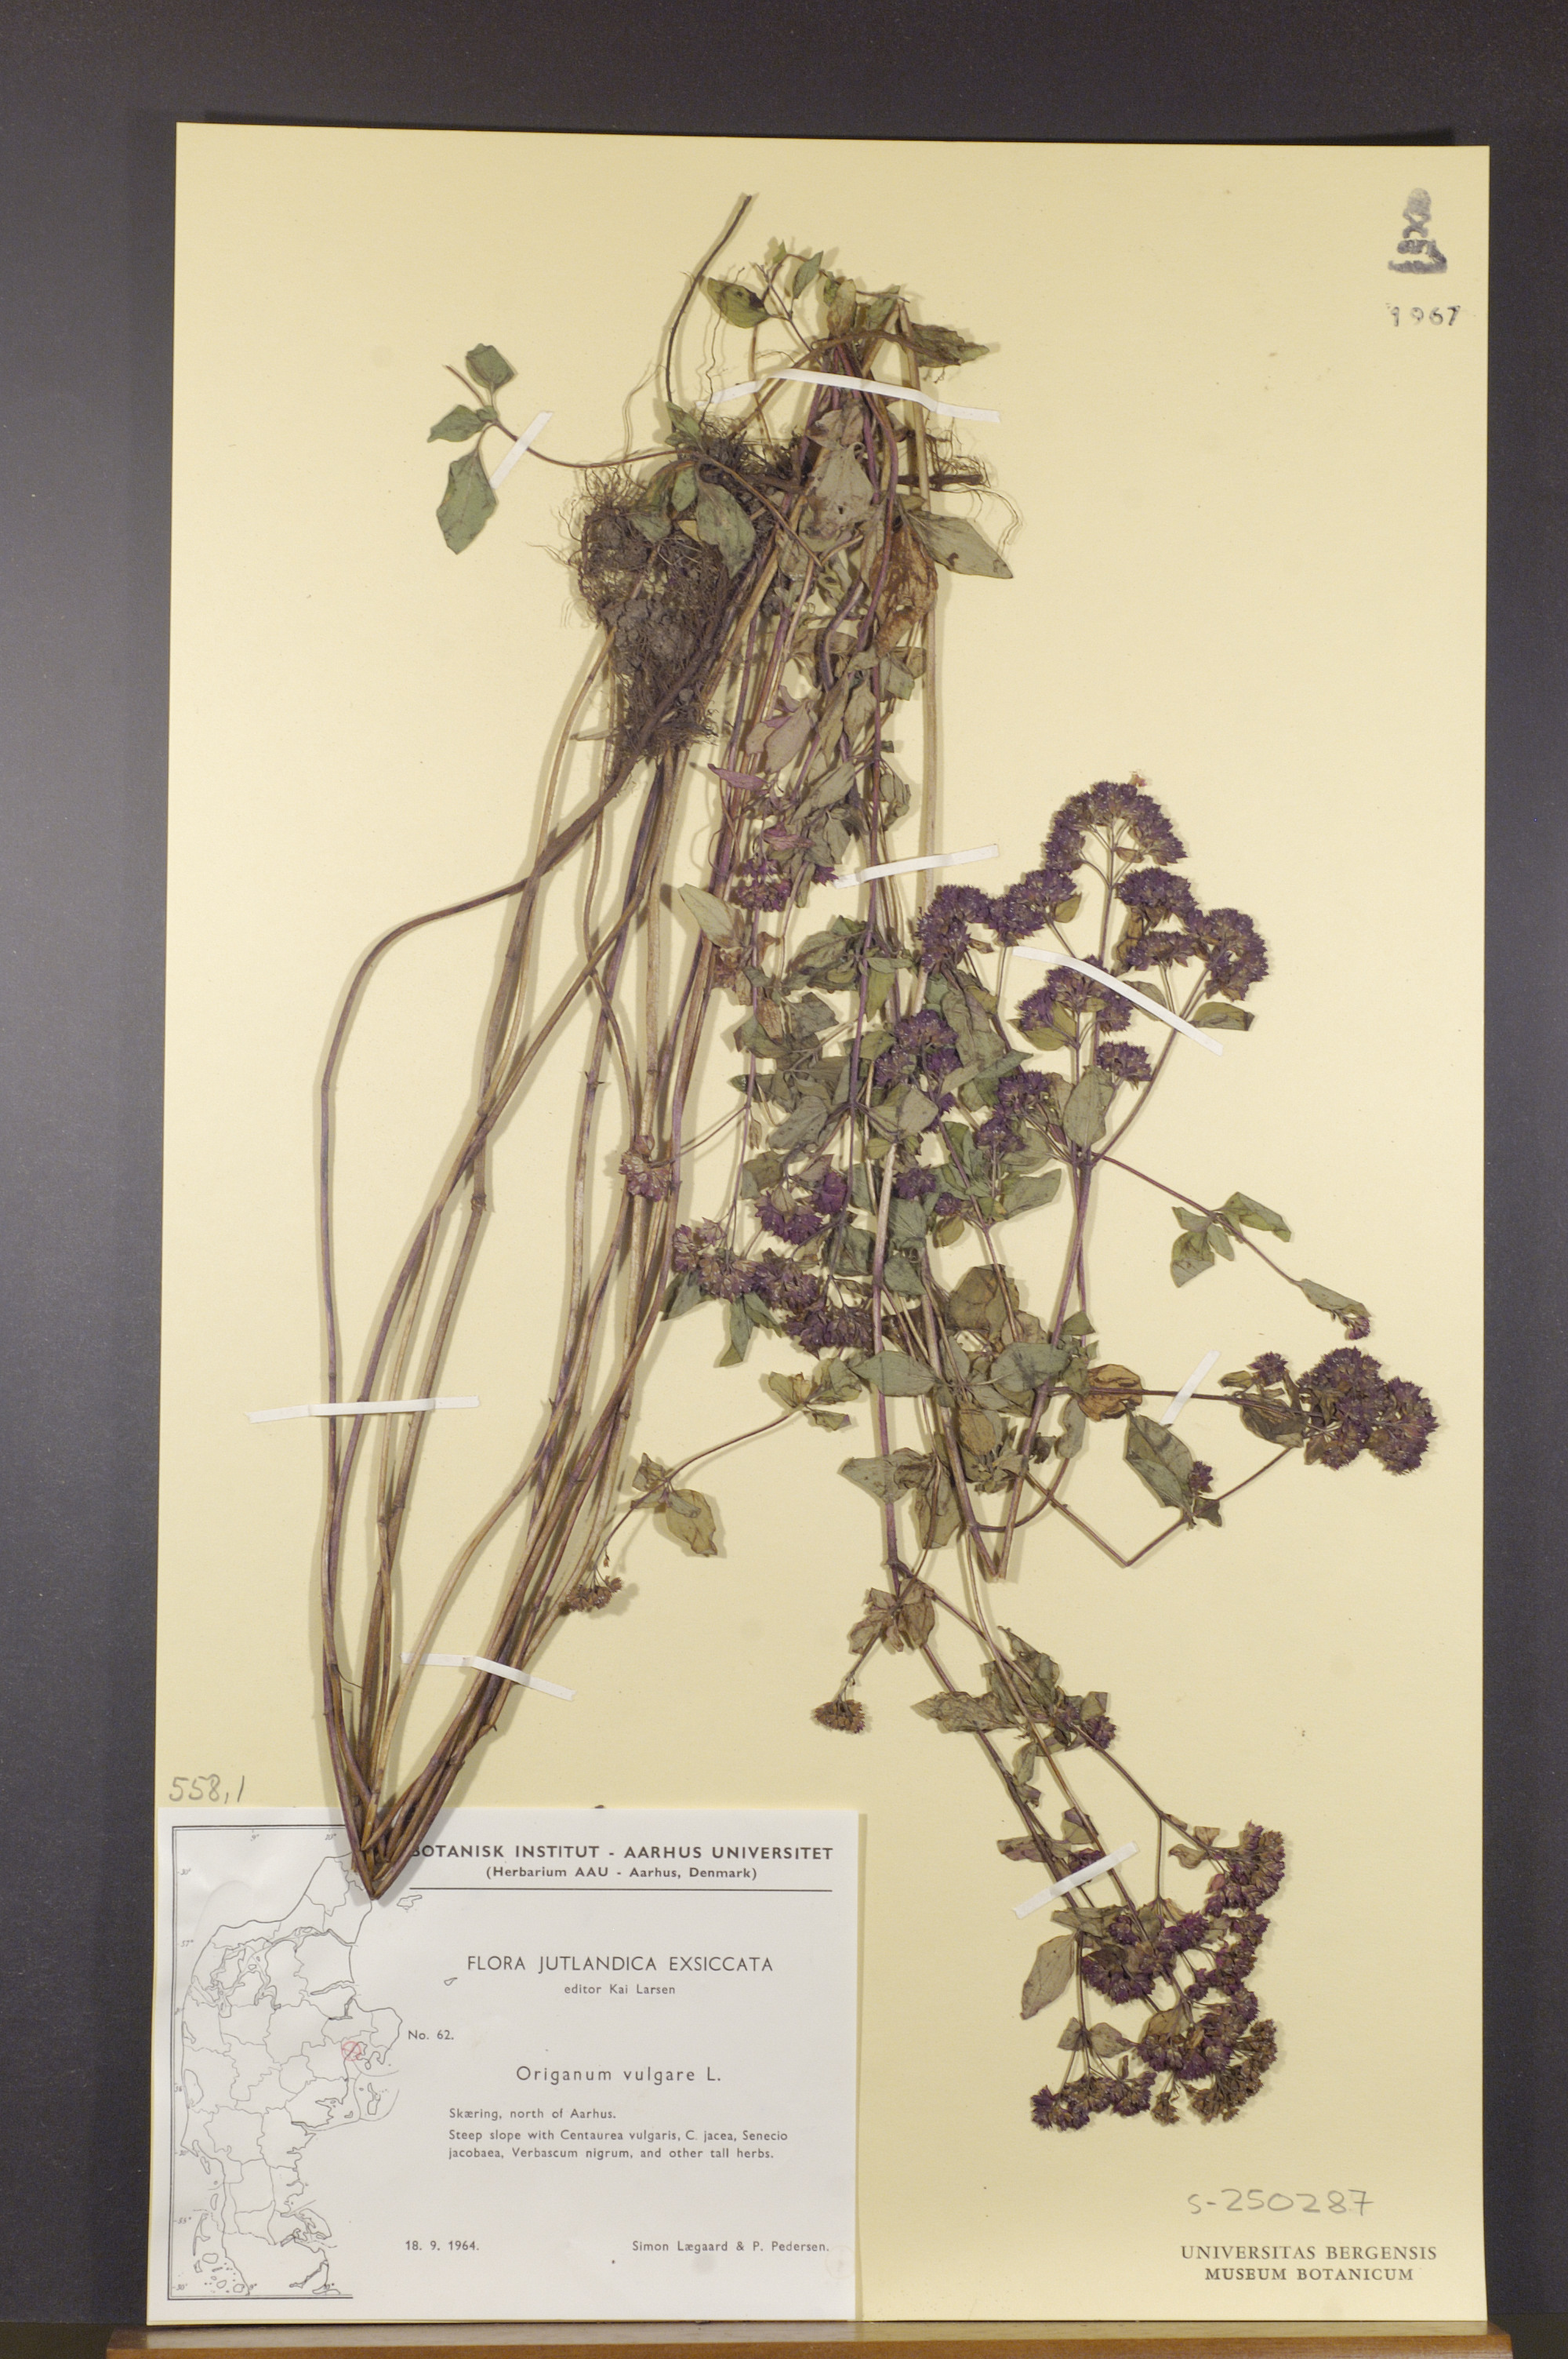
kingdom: Plantae
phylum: Tracheophyta
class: Magnoliopsida
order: Lamiales
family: Lamiaceae
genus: Origanum
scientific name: Origanum vulgare
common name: Wild marjoram
